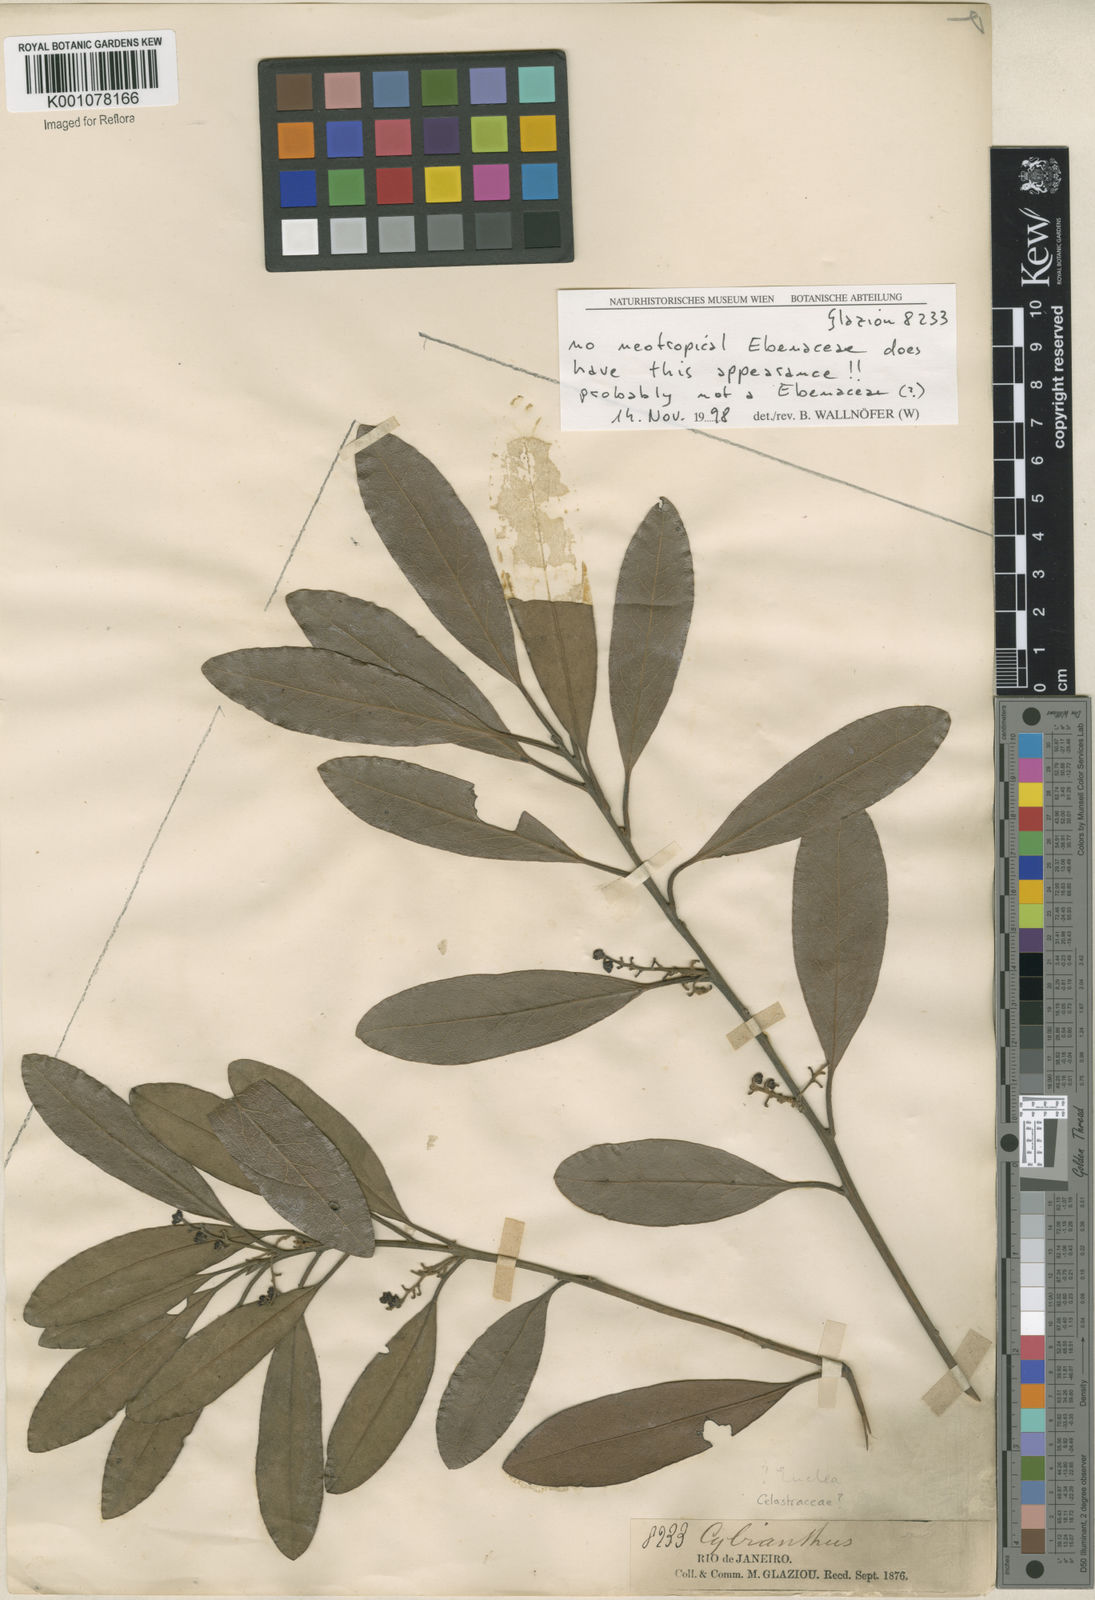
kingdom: Plantae
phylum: Tracheophyta
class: Magnoliopsida
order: Celastrales
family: Celastraceae
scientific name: Celastraceae
